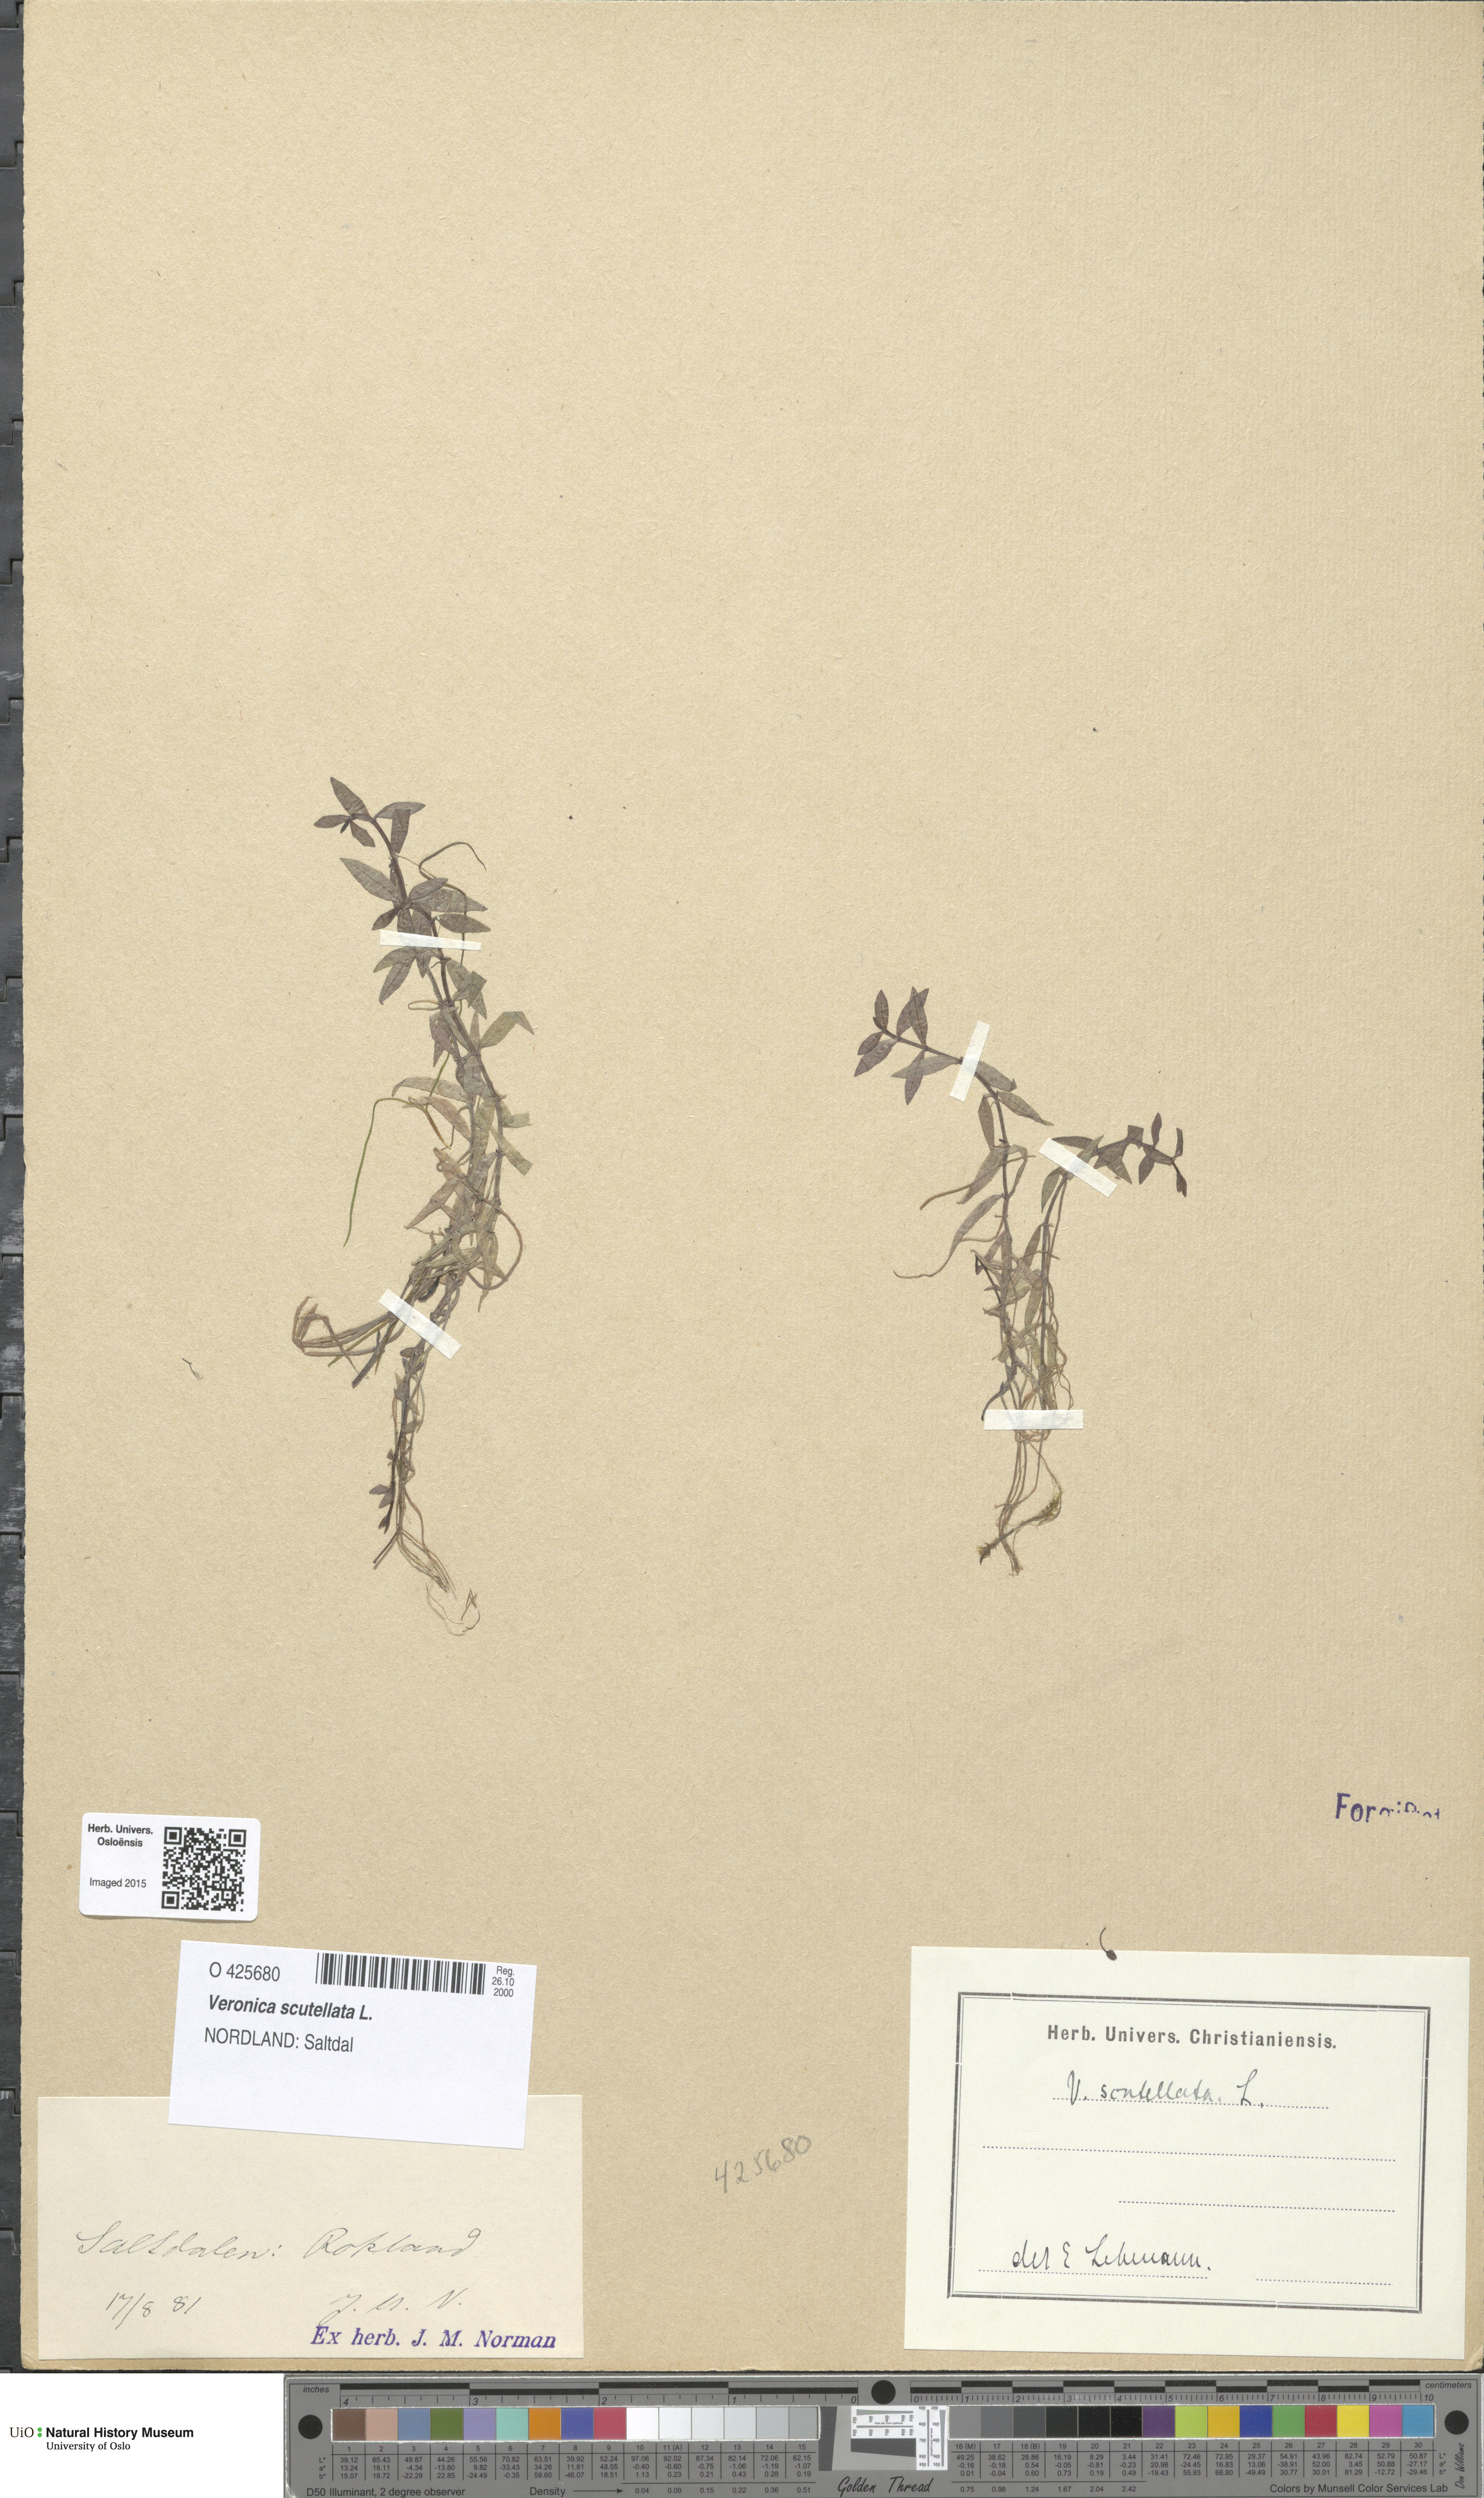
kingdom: Plantae
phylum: Tracheophyta
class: Magnoliopsida
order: Lamiales
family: Plantaginaceae
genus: Veronica
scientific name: Veronica scutellata
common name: Marsh speedwell
